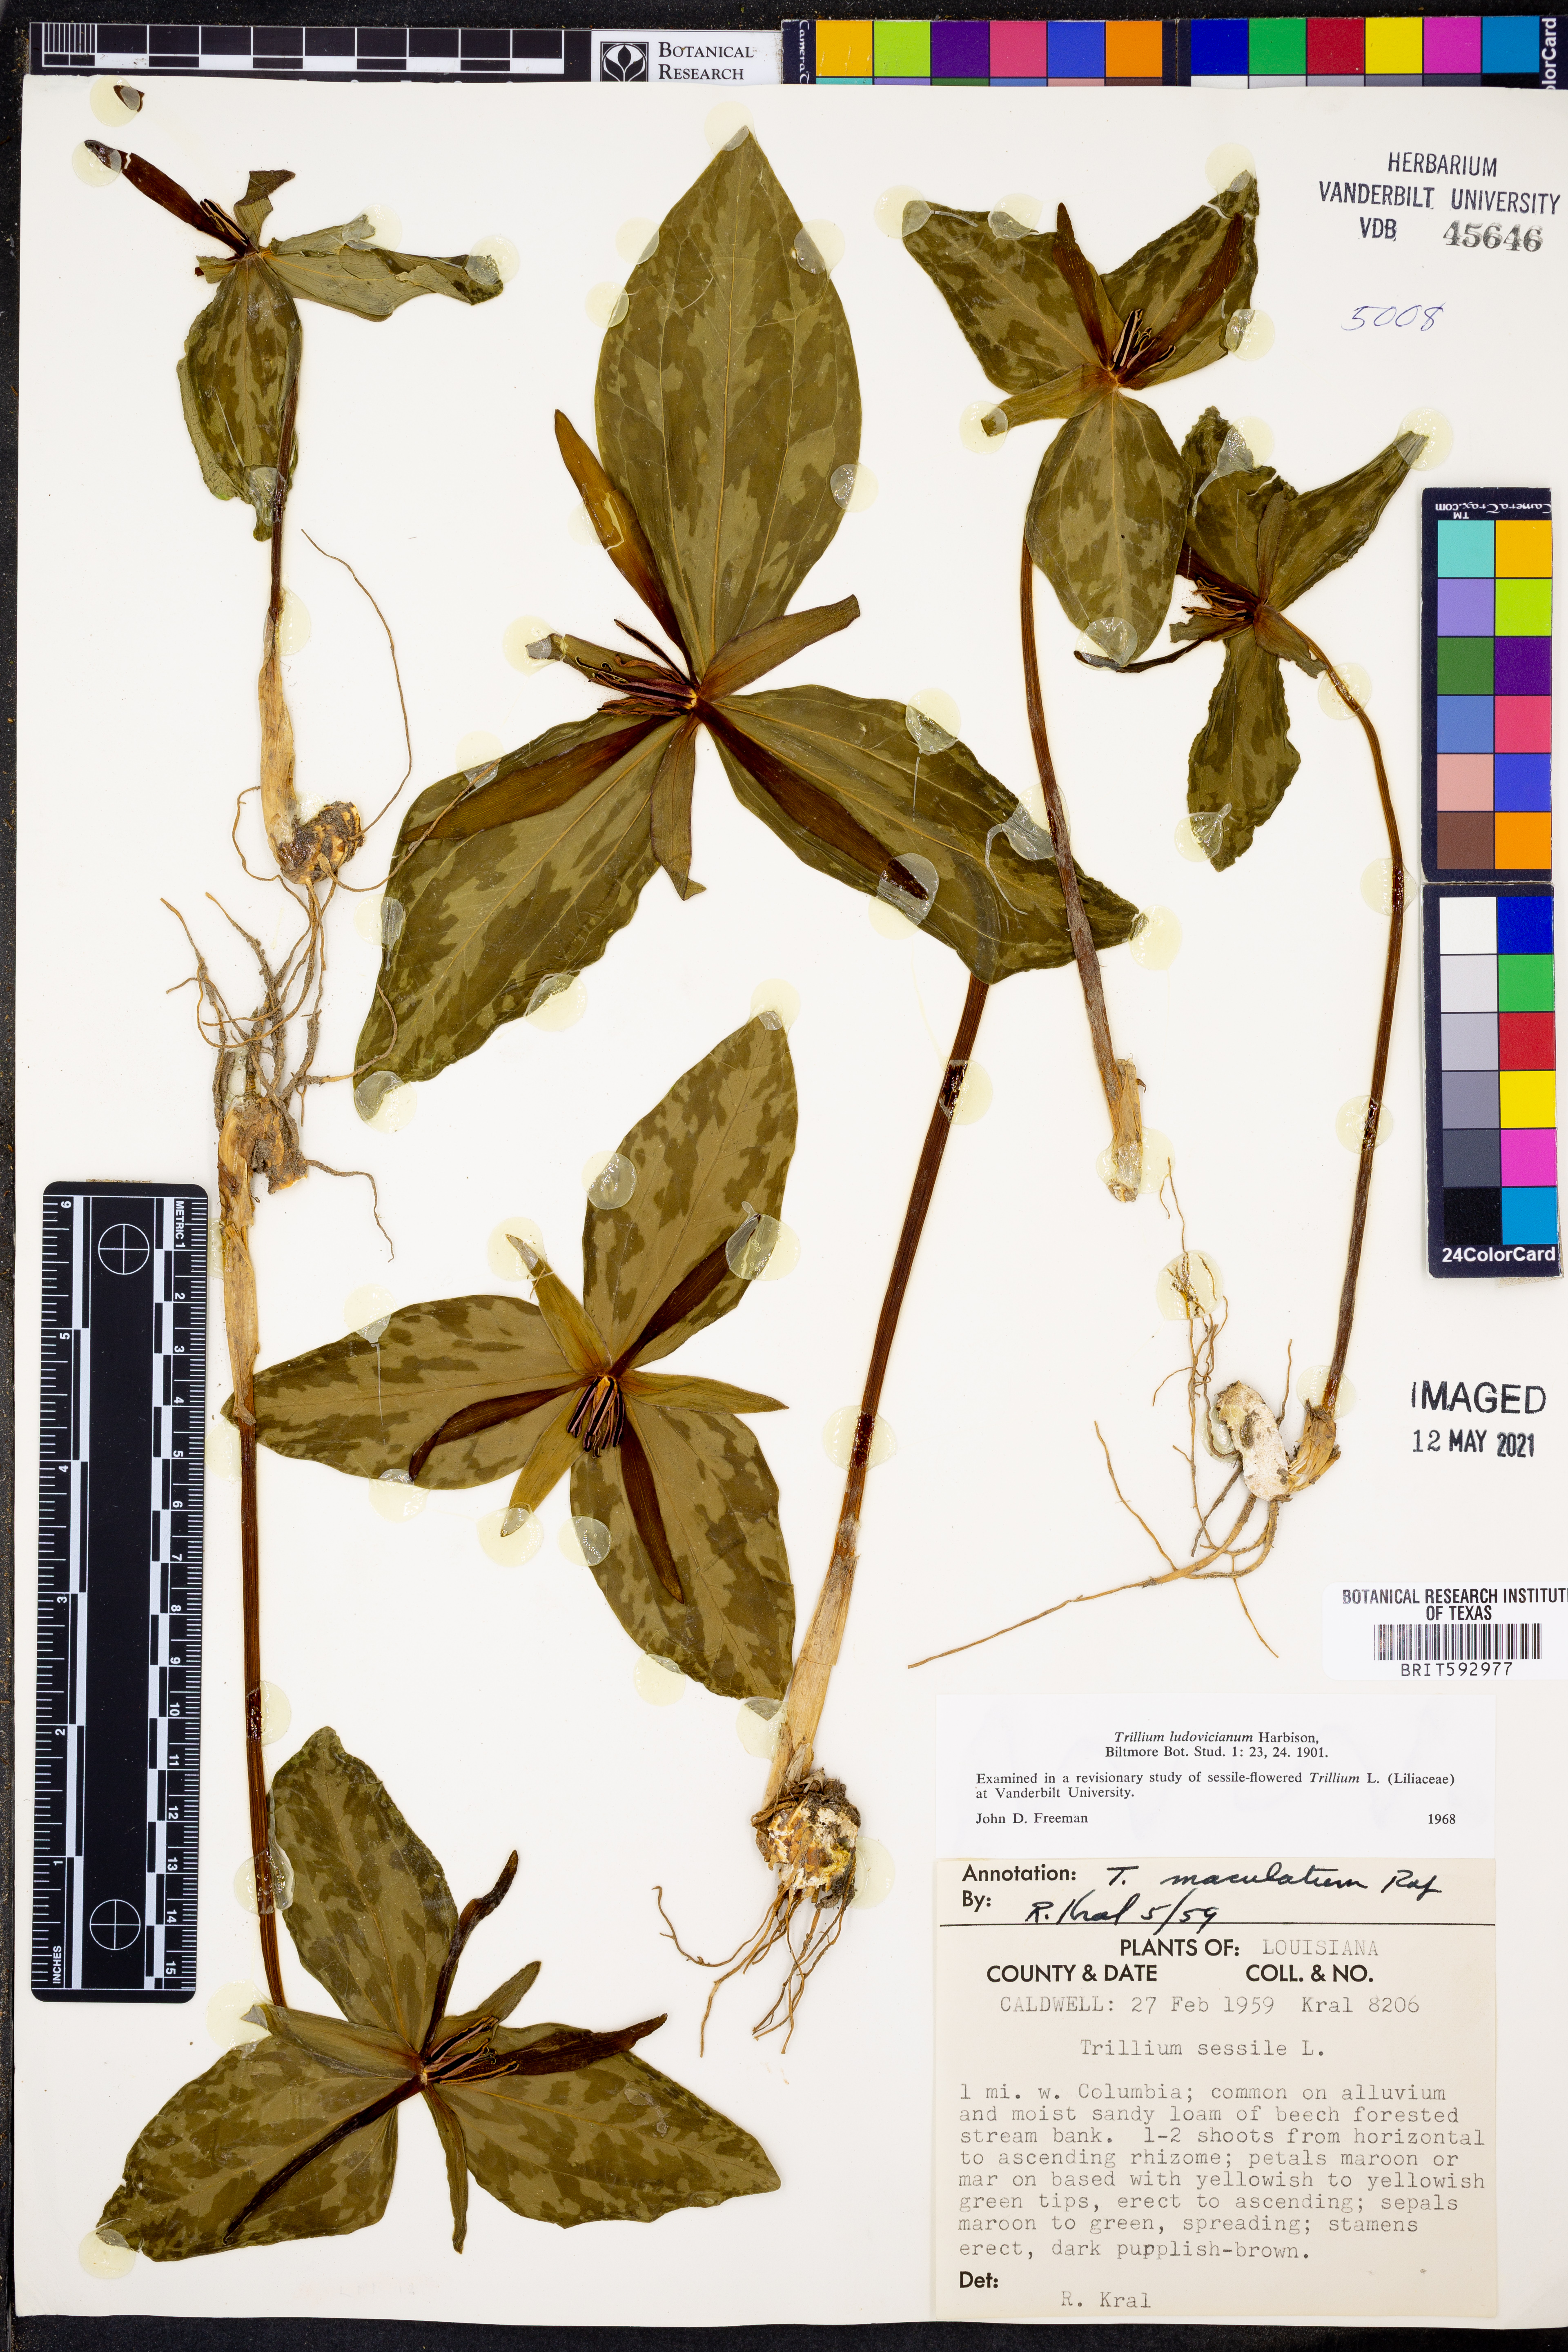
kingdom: Plantae
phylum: Tracheophyta
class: Liliopsida
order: Liliales
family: Melanthiaceae
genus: Trillium
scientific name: Trillium ludovicianum
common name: Louisiana toadshade
